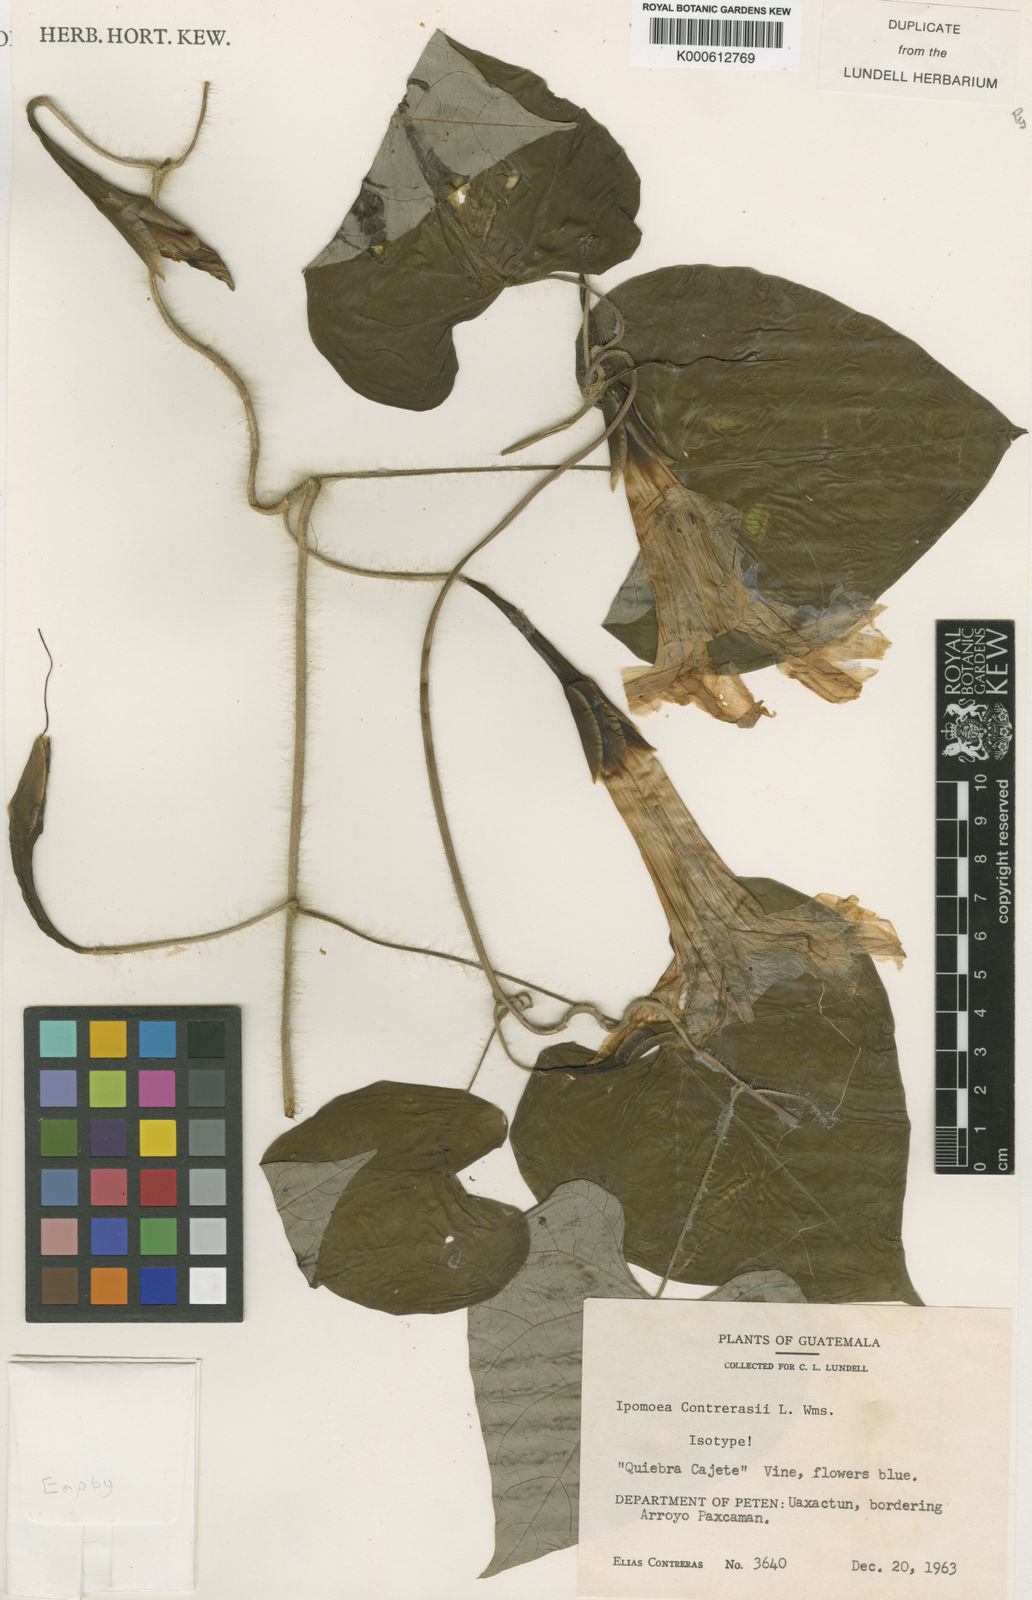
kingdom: Plantae
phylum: Tracheophyta
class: Magnoliopsida
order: Solanales
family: Convolvulaceae
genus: Ipomoea
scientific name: Ipomoea clavata
